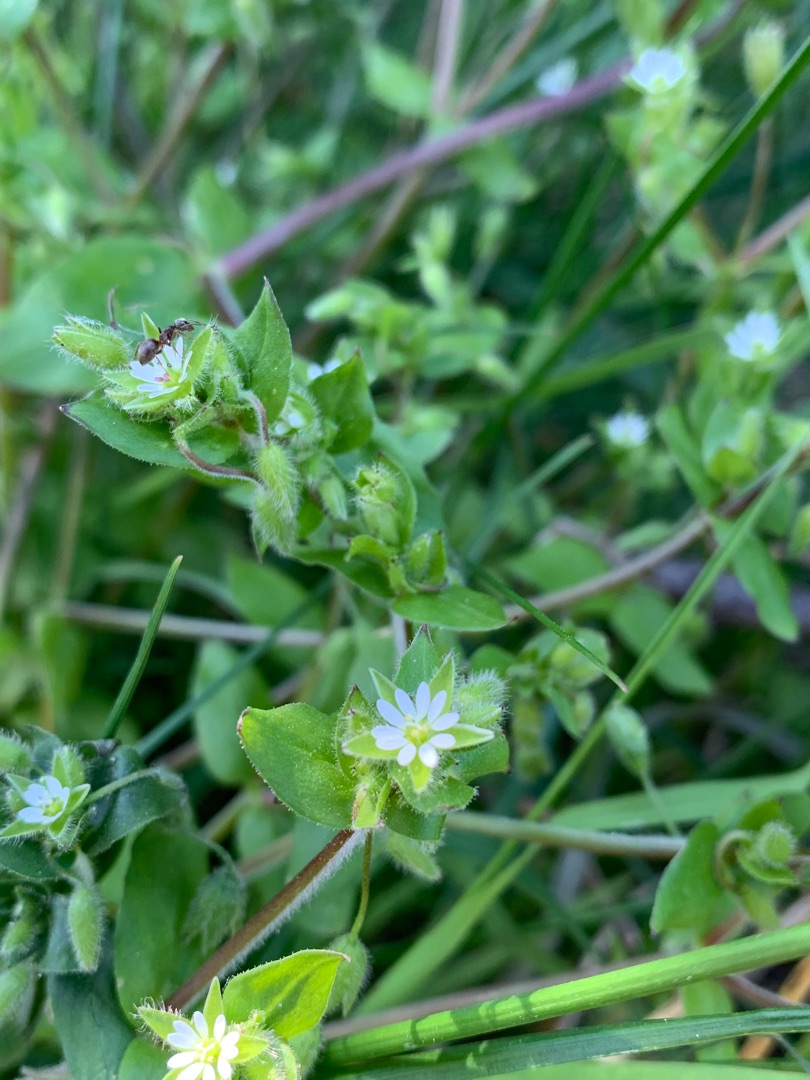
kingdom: Plantae
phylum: Tracheophyta
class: Magnoliopsida
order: Caryophyllales
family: Caryophyllaceae
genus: Stellaria
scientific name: Stellaria media
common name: Almindelig fuglegræs
